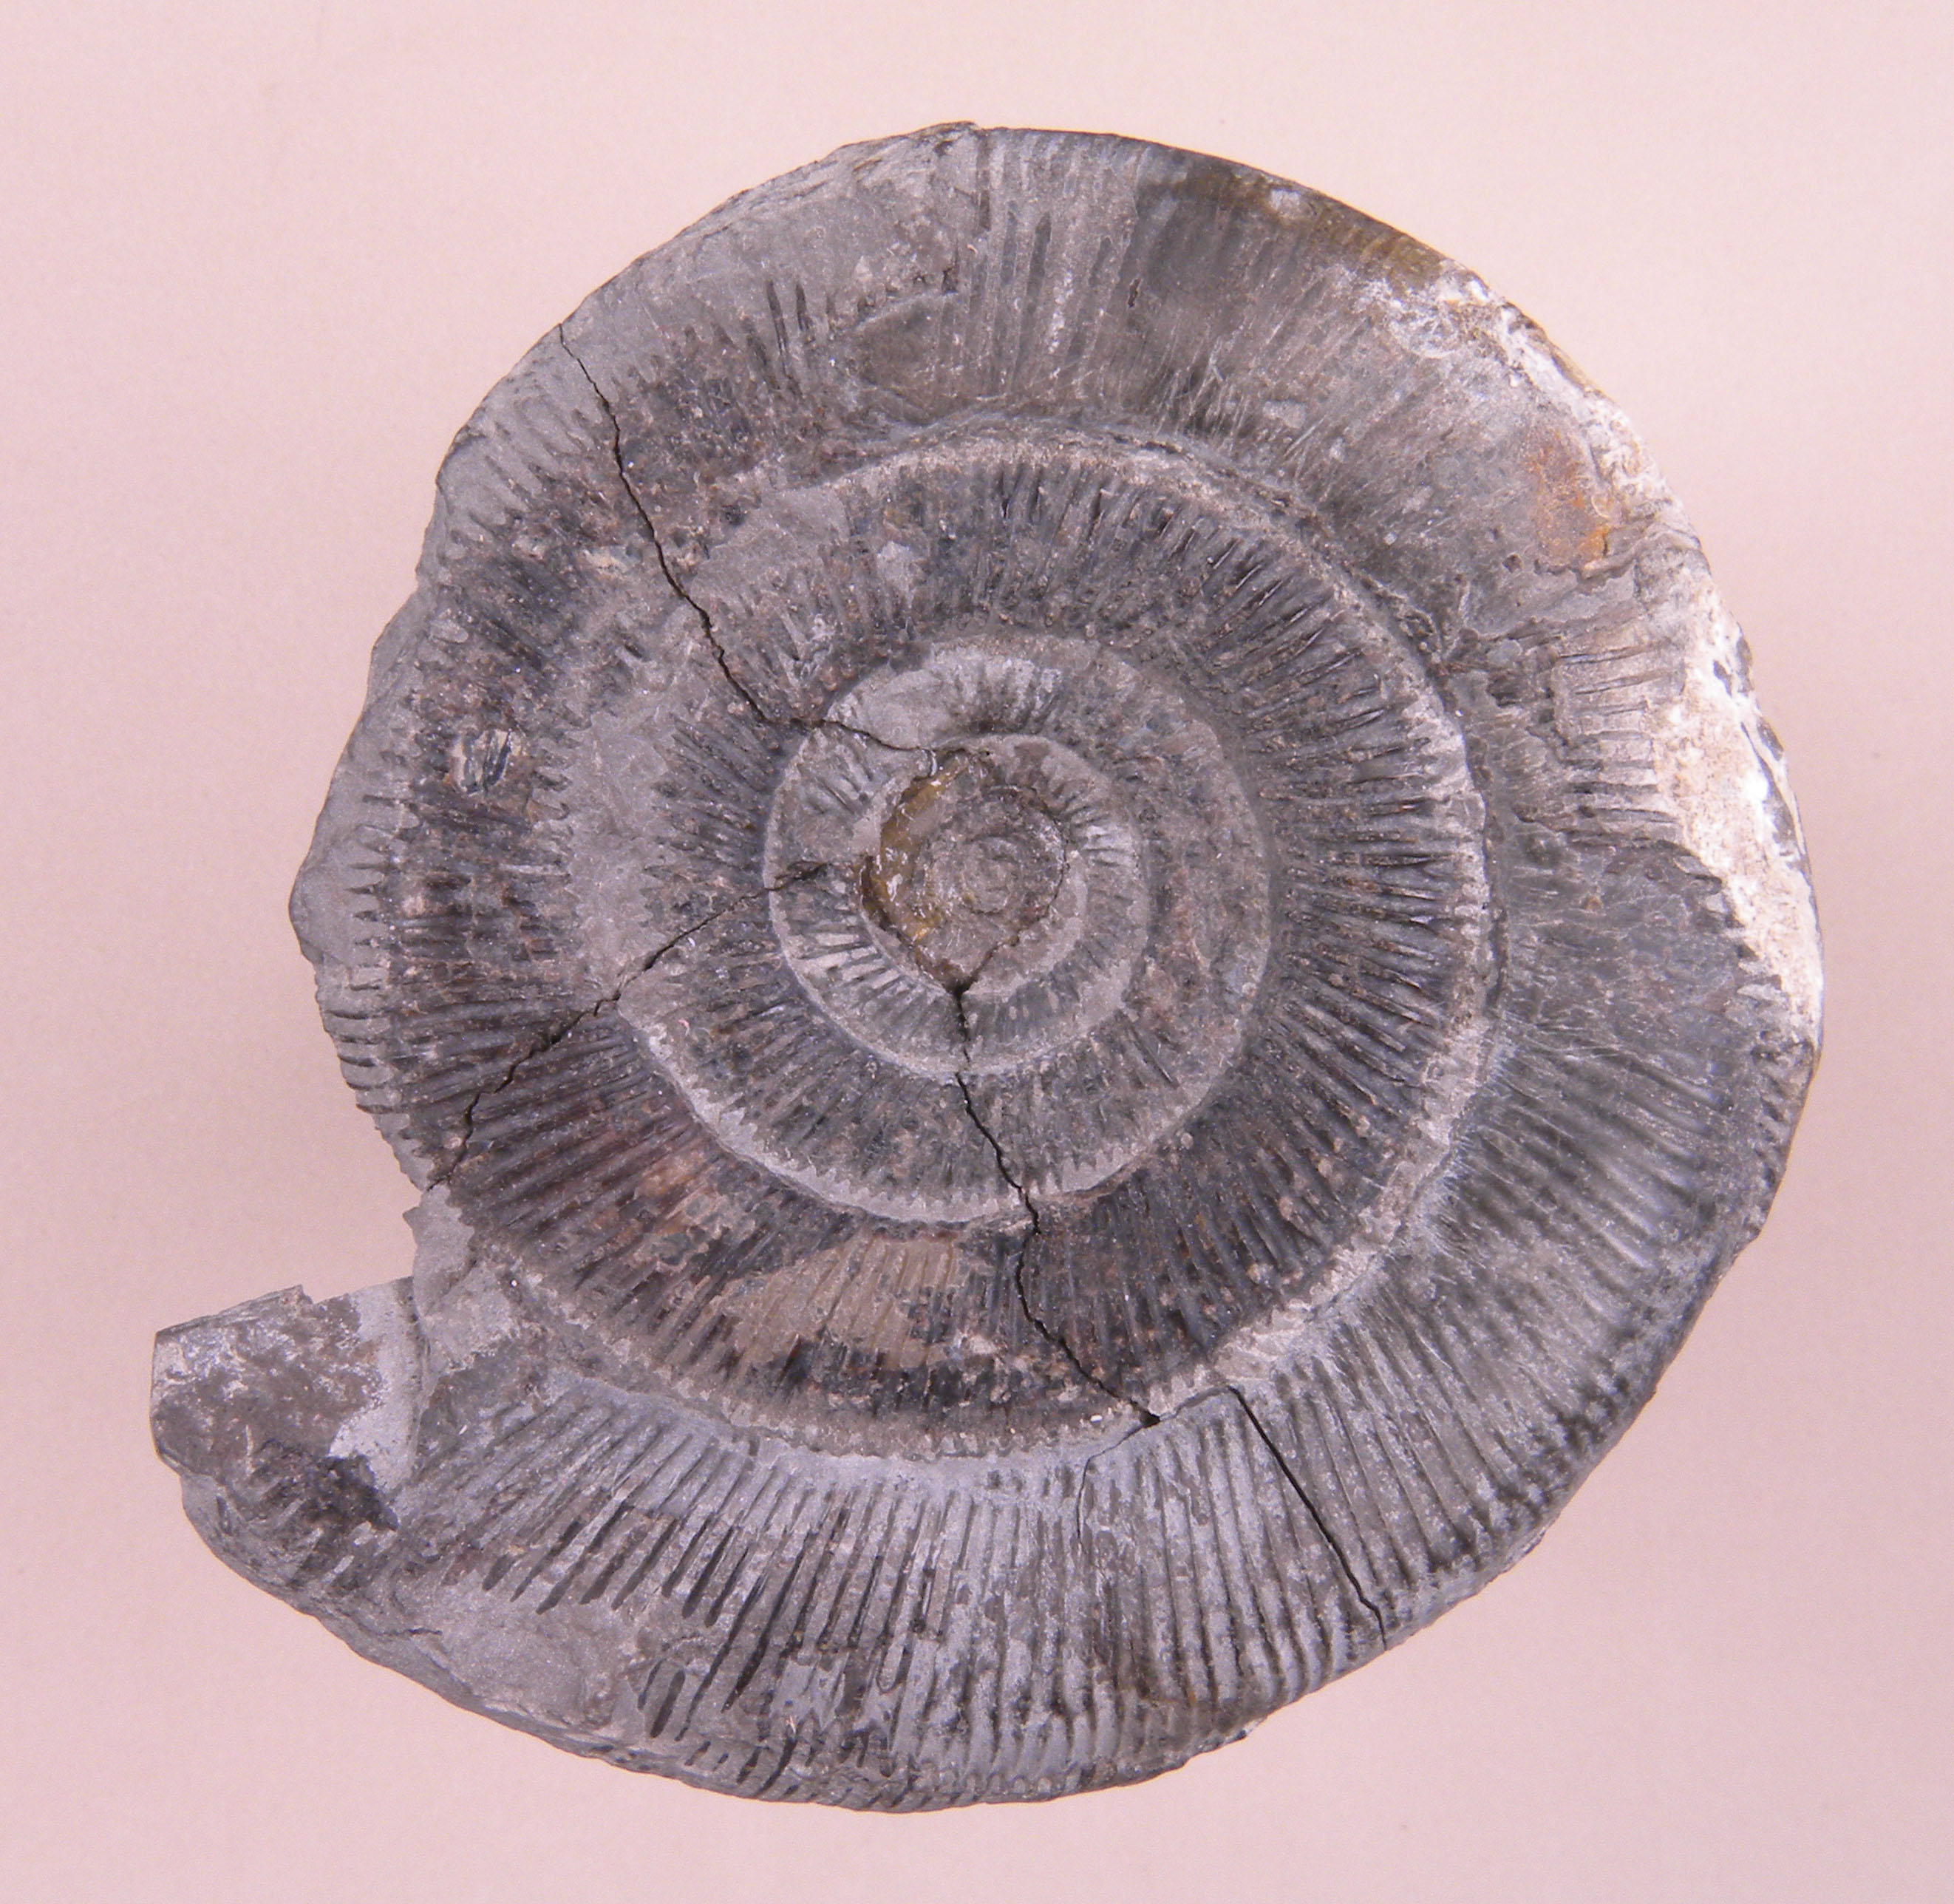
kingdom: Animalia
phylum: Mollusca
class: Cephalopoda
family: Dactylioceratidae
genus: Dactylioceras
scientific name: Dactylioceras
